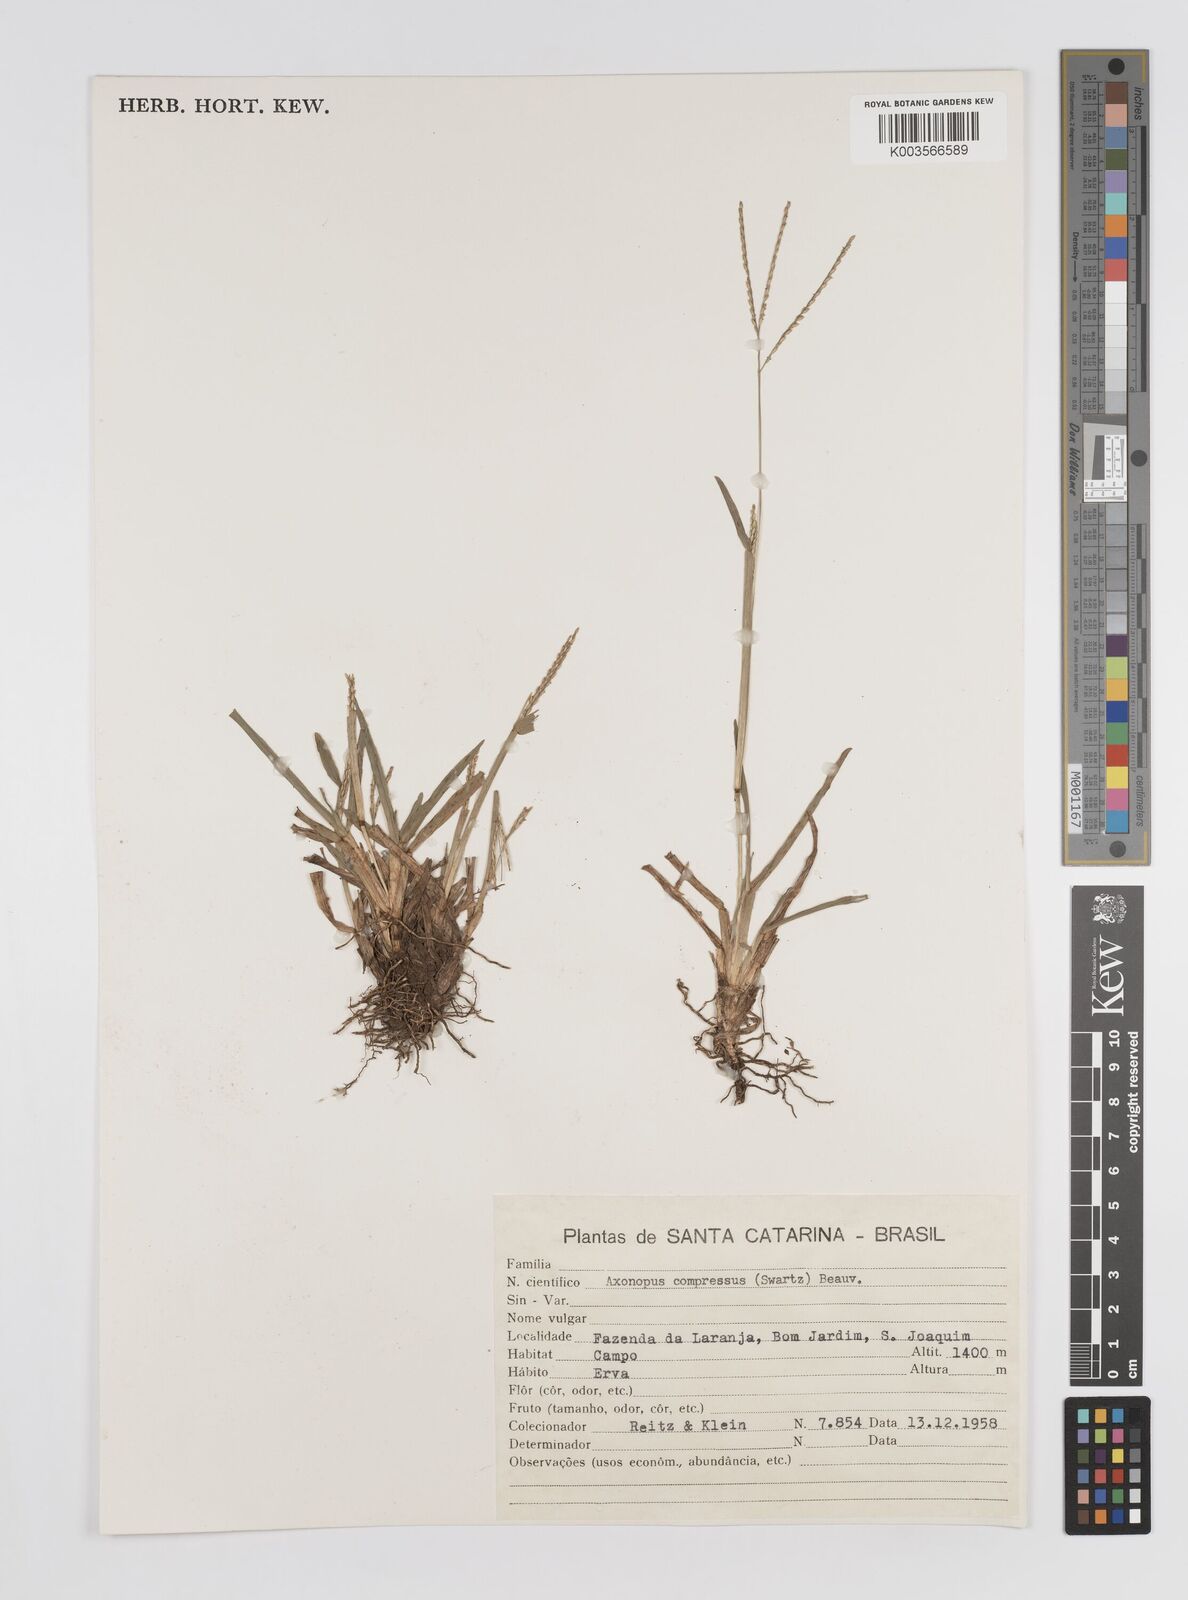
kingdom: Plantae
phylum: Tracheophyta
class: Liliopsida
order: Poales
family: Poaceae
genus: Axonopus
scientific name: Axonopus compressus
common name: American carpet grass
